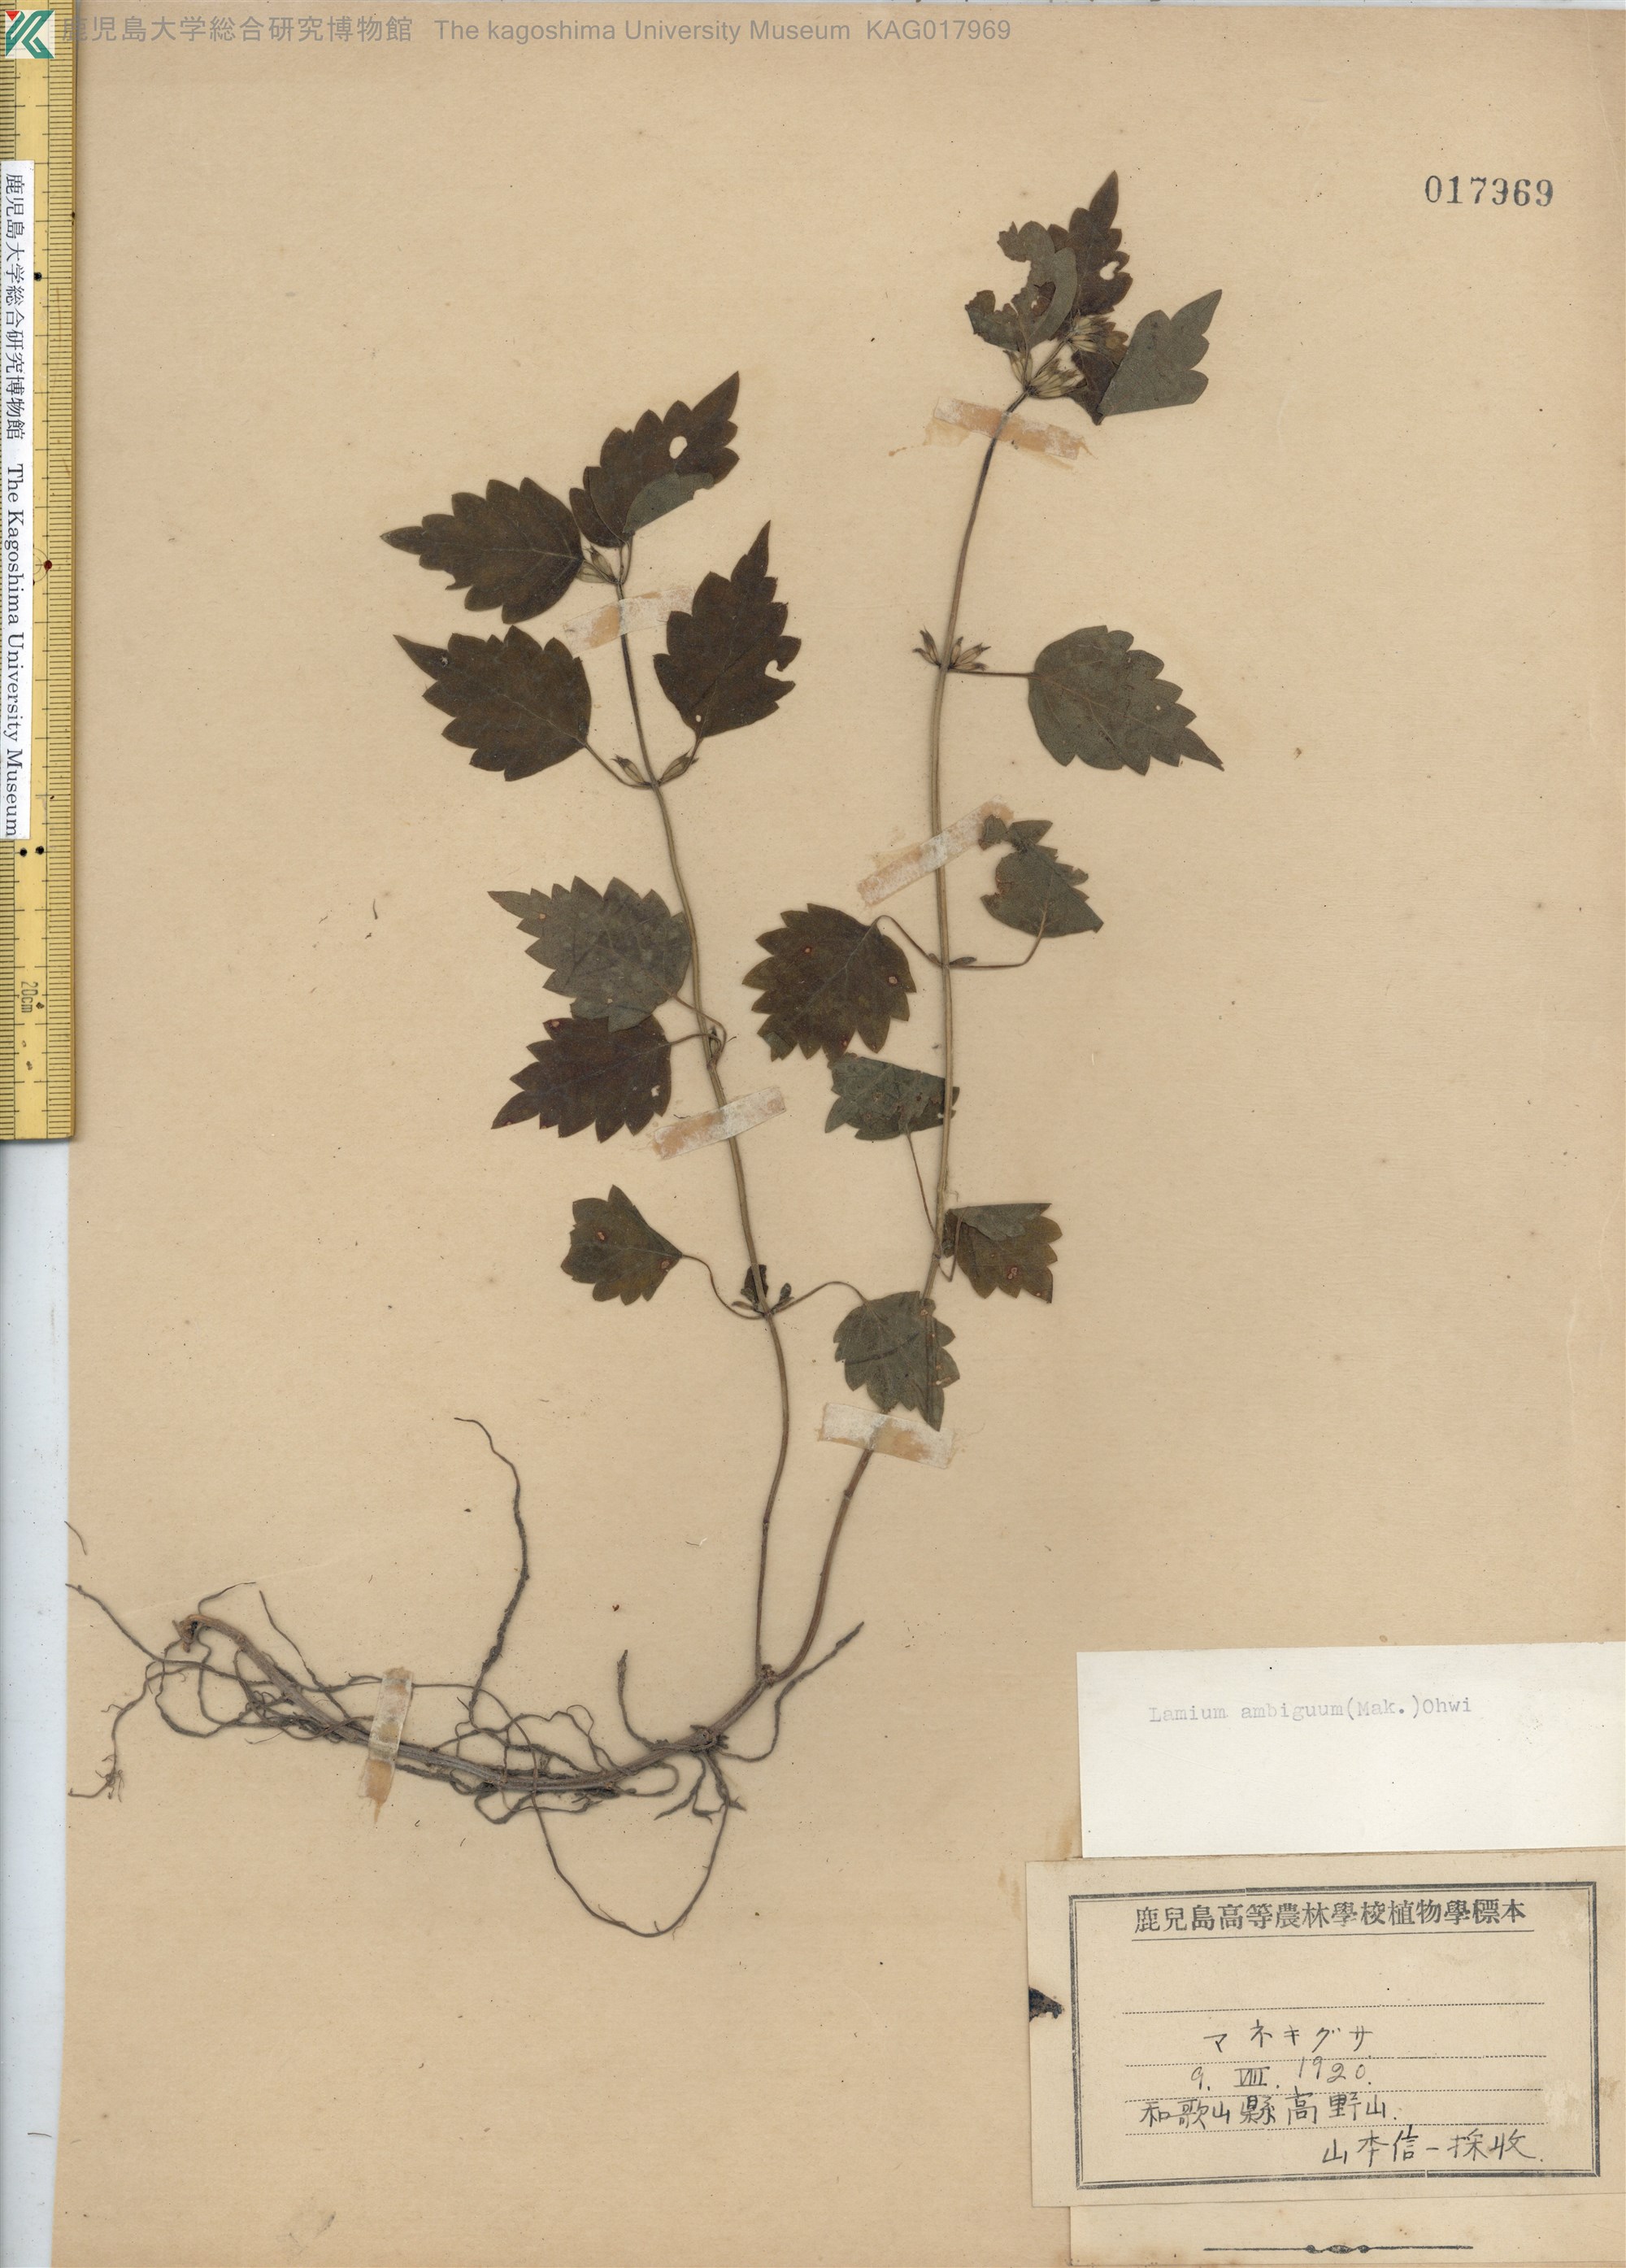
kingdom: Plantae
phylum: Tracheophyta
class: Magnoliopsida
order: Lamiales
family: Lamiaceae
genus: Loxocalyx
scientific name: Loxocalyx ambiguus
